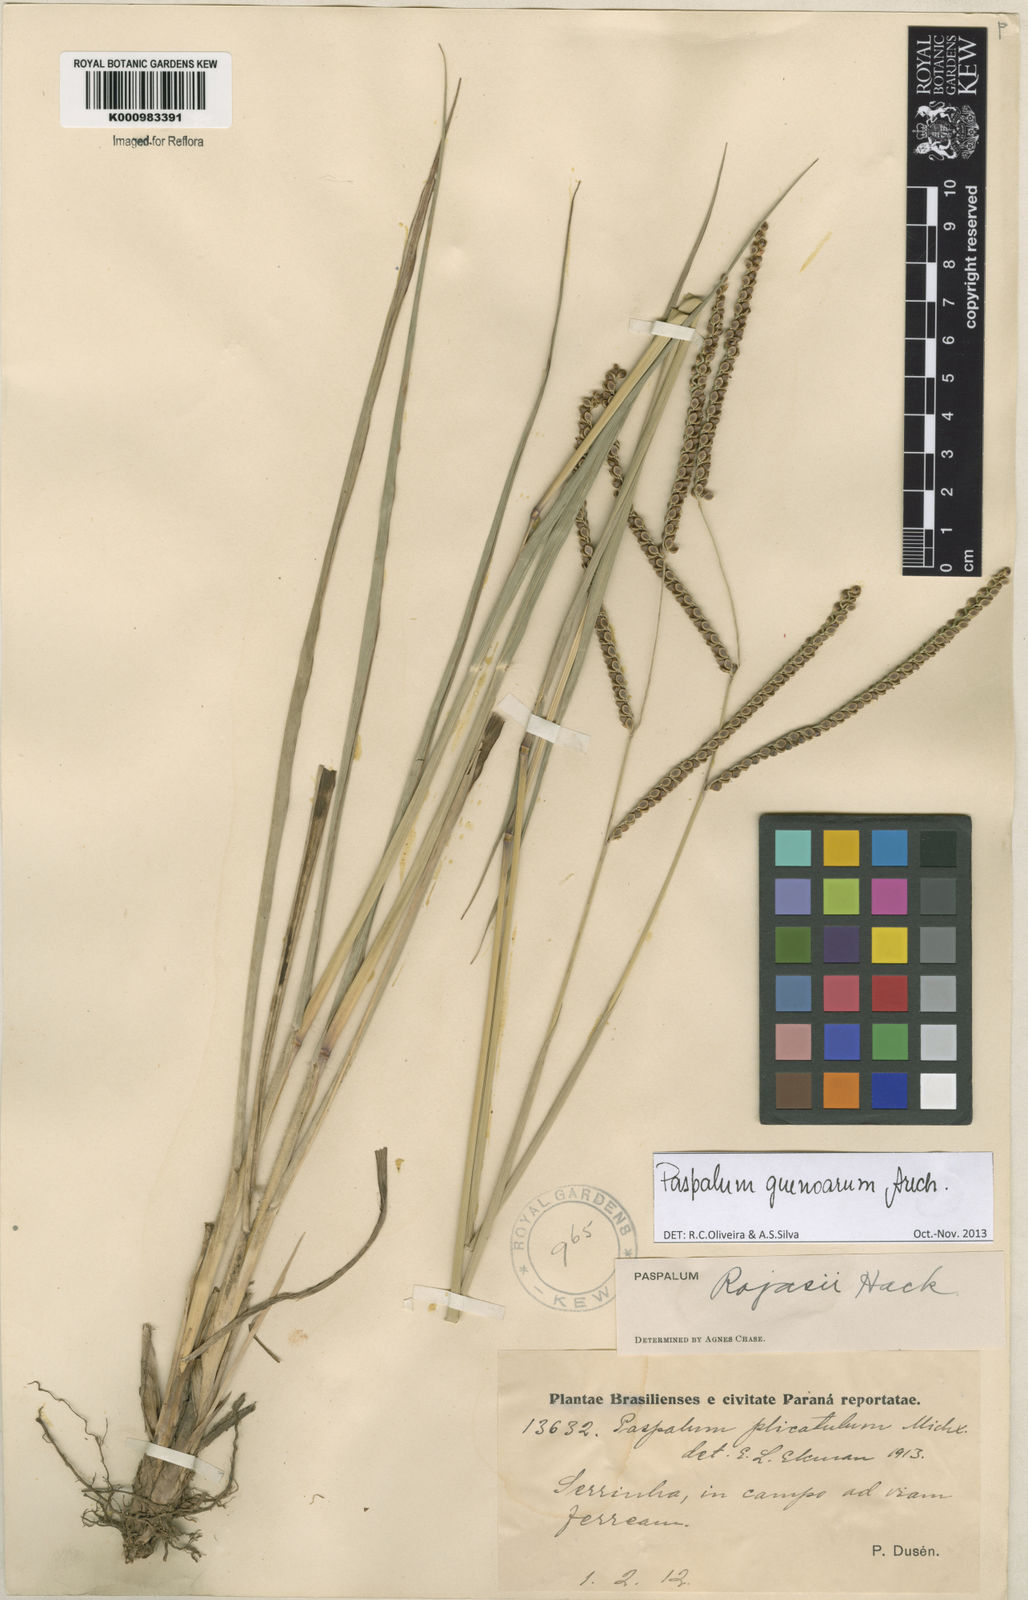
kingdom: Plantae
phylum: Tracheophyta
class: Liliopsida
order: Poales
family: Poaceae
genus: Paspalum
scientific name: Paspalum guenoarum
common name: Wintergreen paspalum
